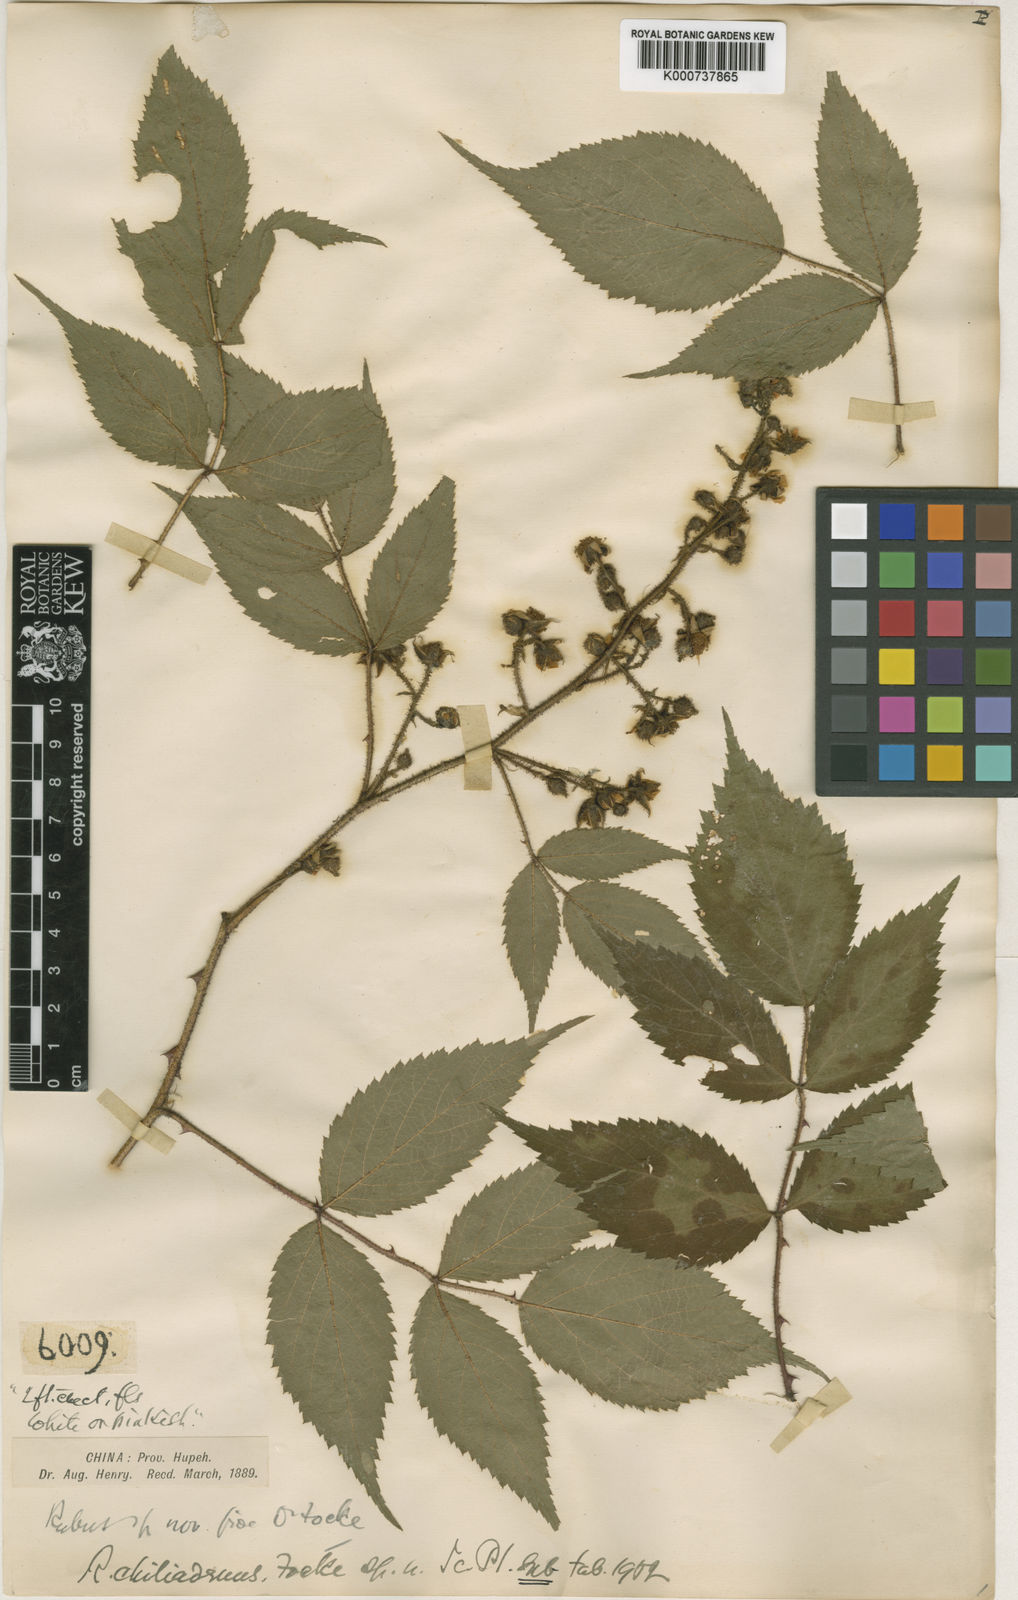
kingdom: Plantae
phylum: Tracheophyta
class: Magnoliopsida
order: Rosales
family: Rosaceae
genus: Rubus
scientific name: Rubus chiliadenus
